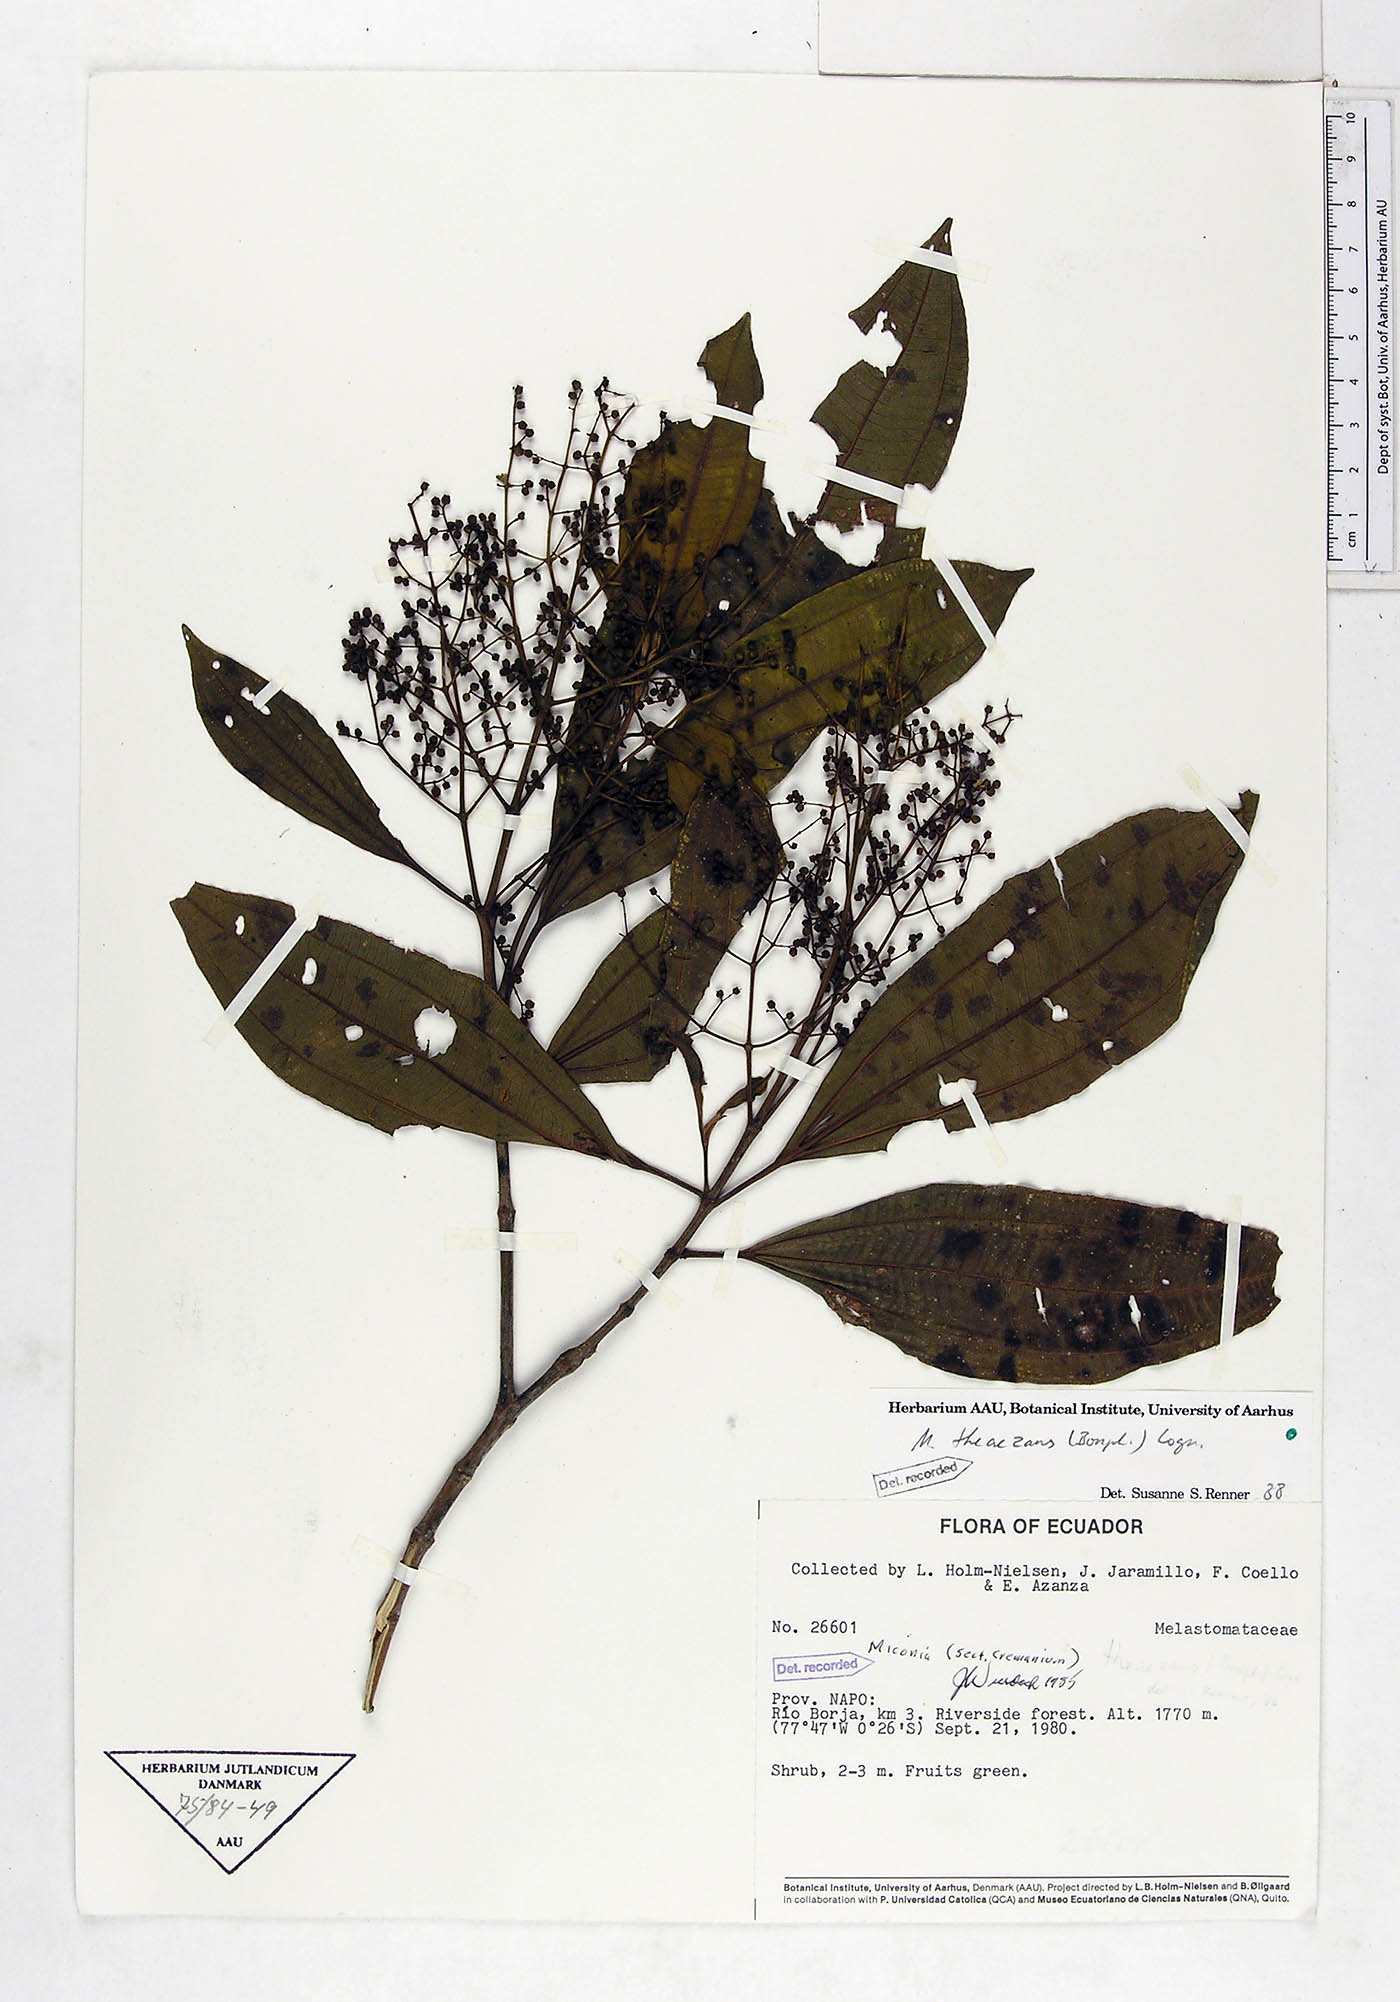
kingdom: Plantae
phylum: Tracheophyta
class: Magnoliopsida
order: Myrtales
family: Melastomataceae
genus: Miconia
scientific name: Miconia theizans
